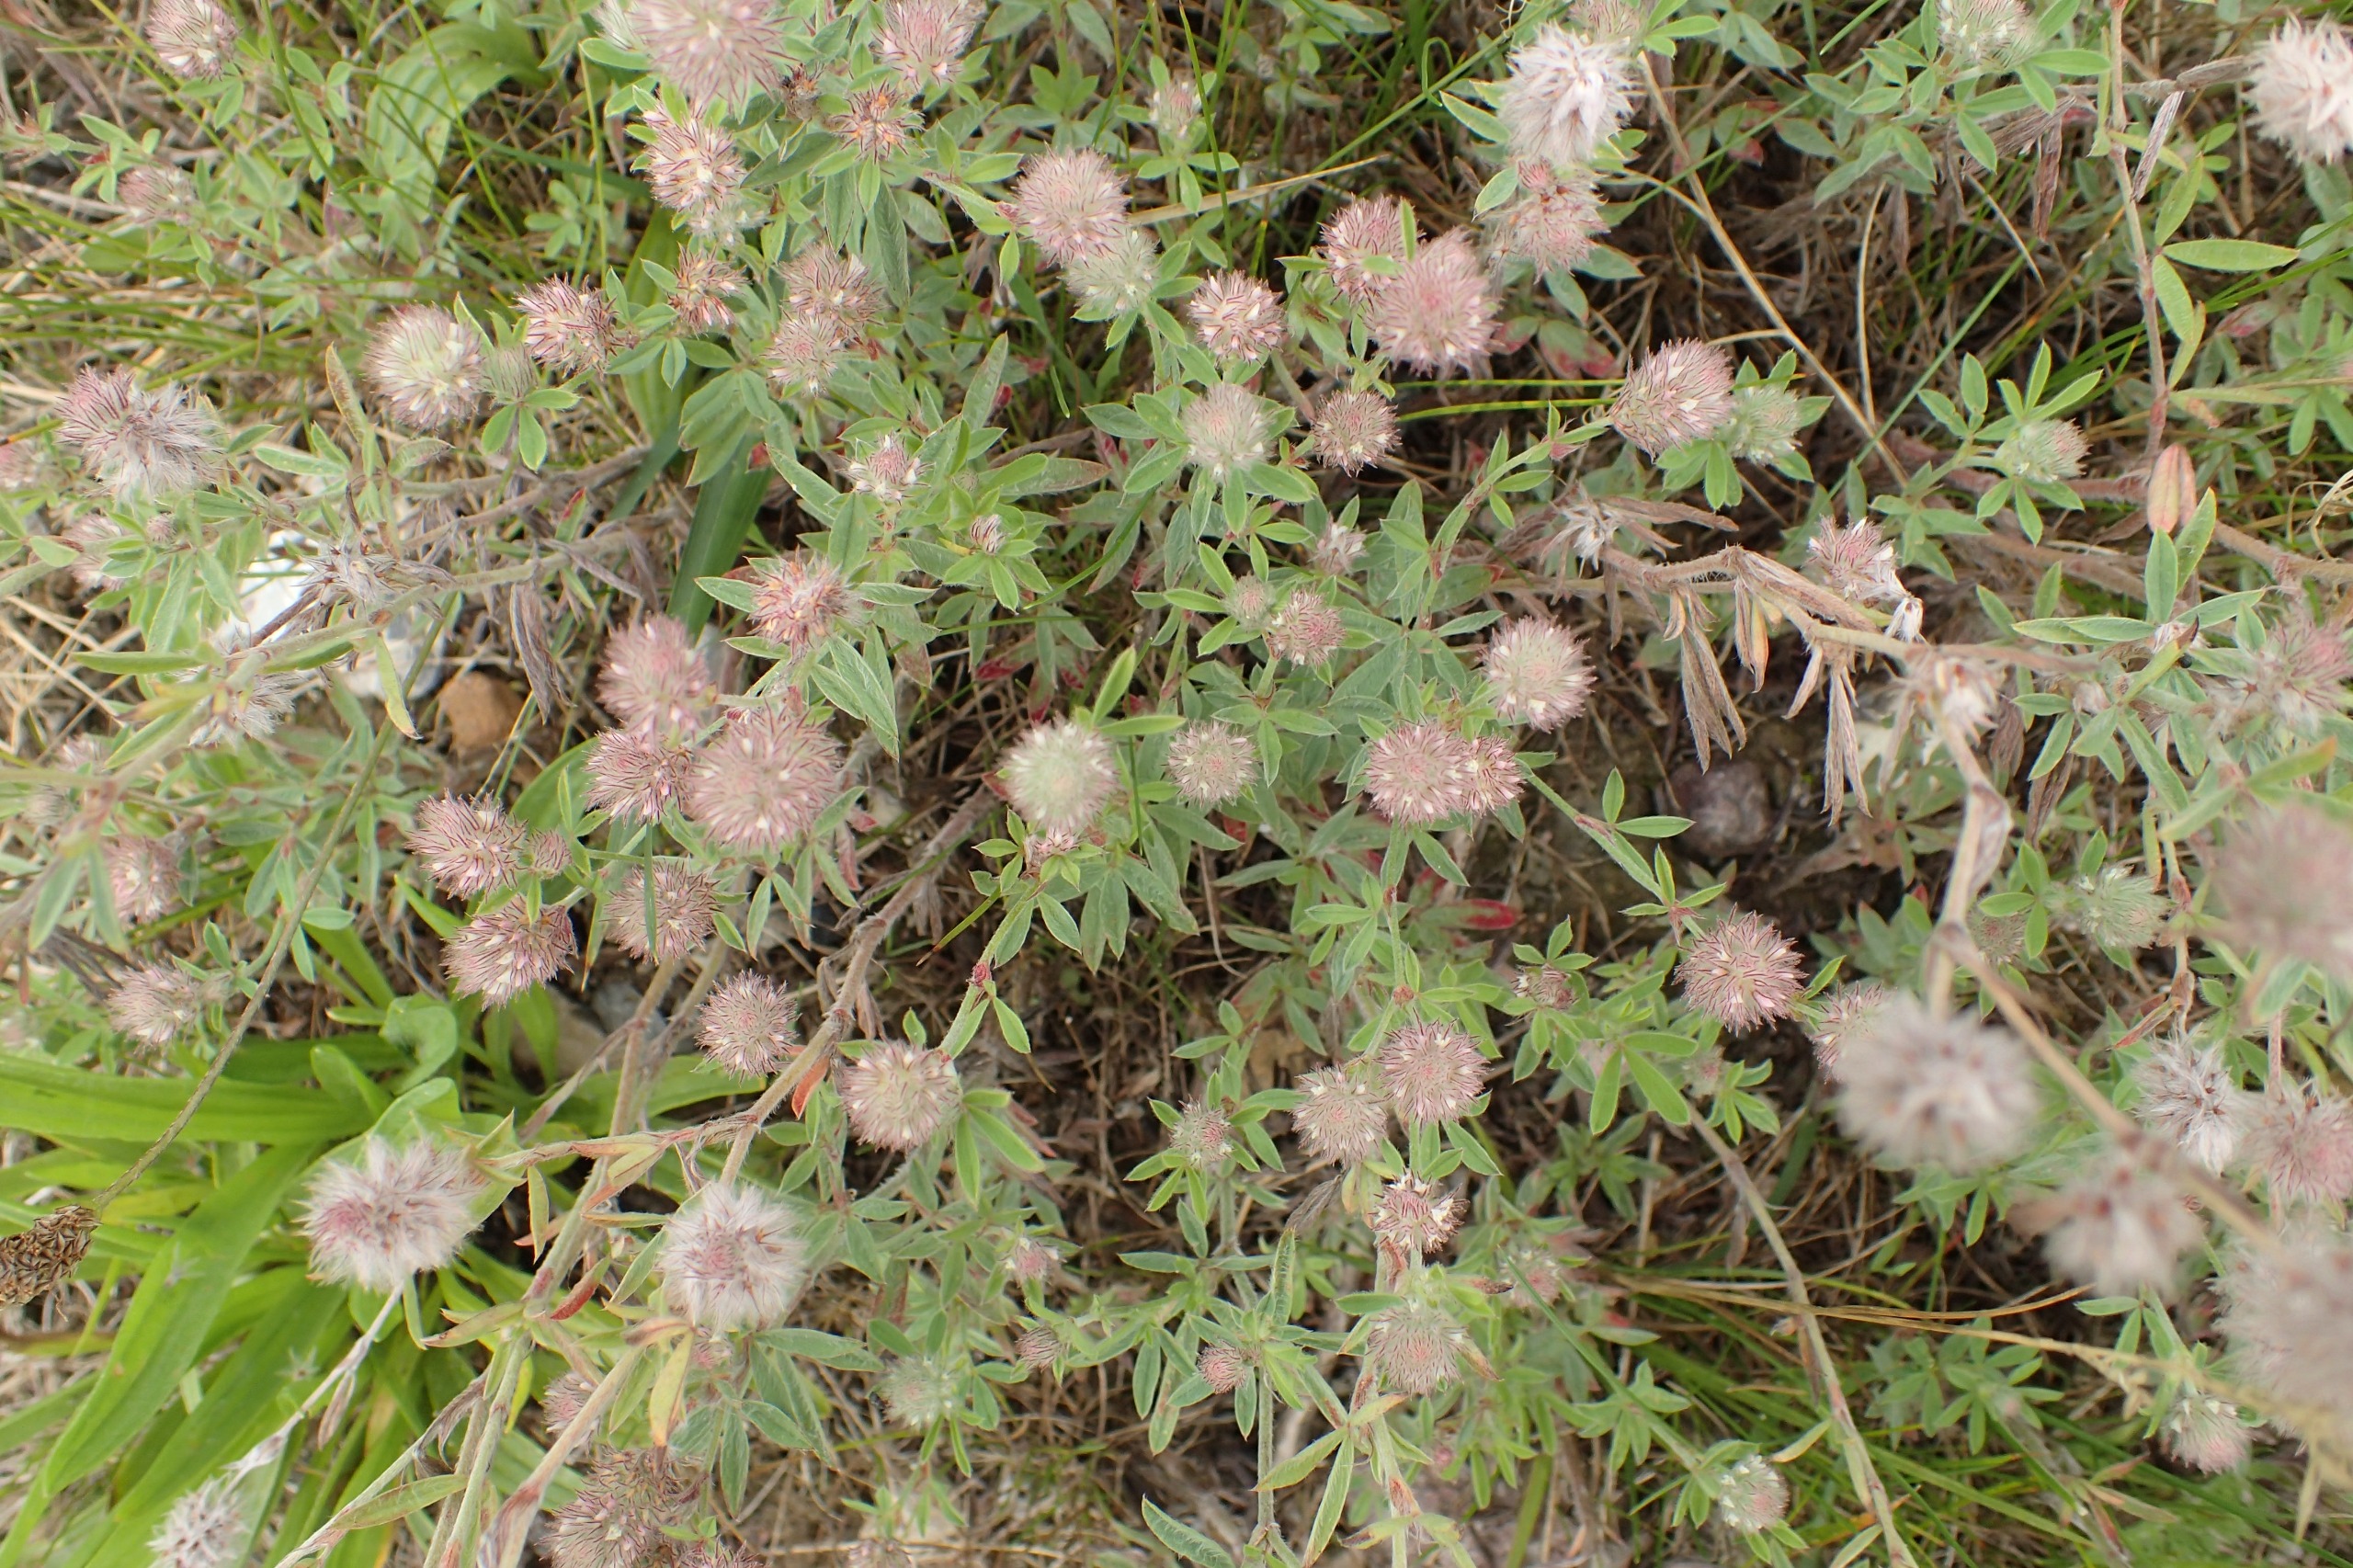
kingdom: Plantae
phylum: Tracheophyta
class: Magnoliopsida
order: Fabales
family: Fabaceae
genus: Trifolium
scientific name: Trifolium arvense
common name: Hare-kløver
